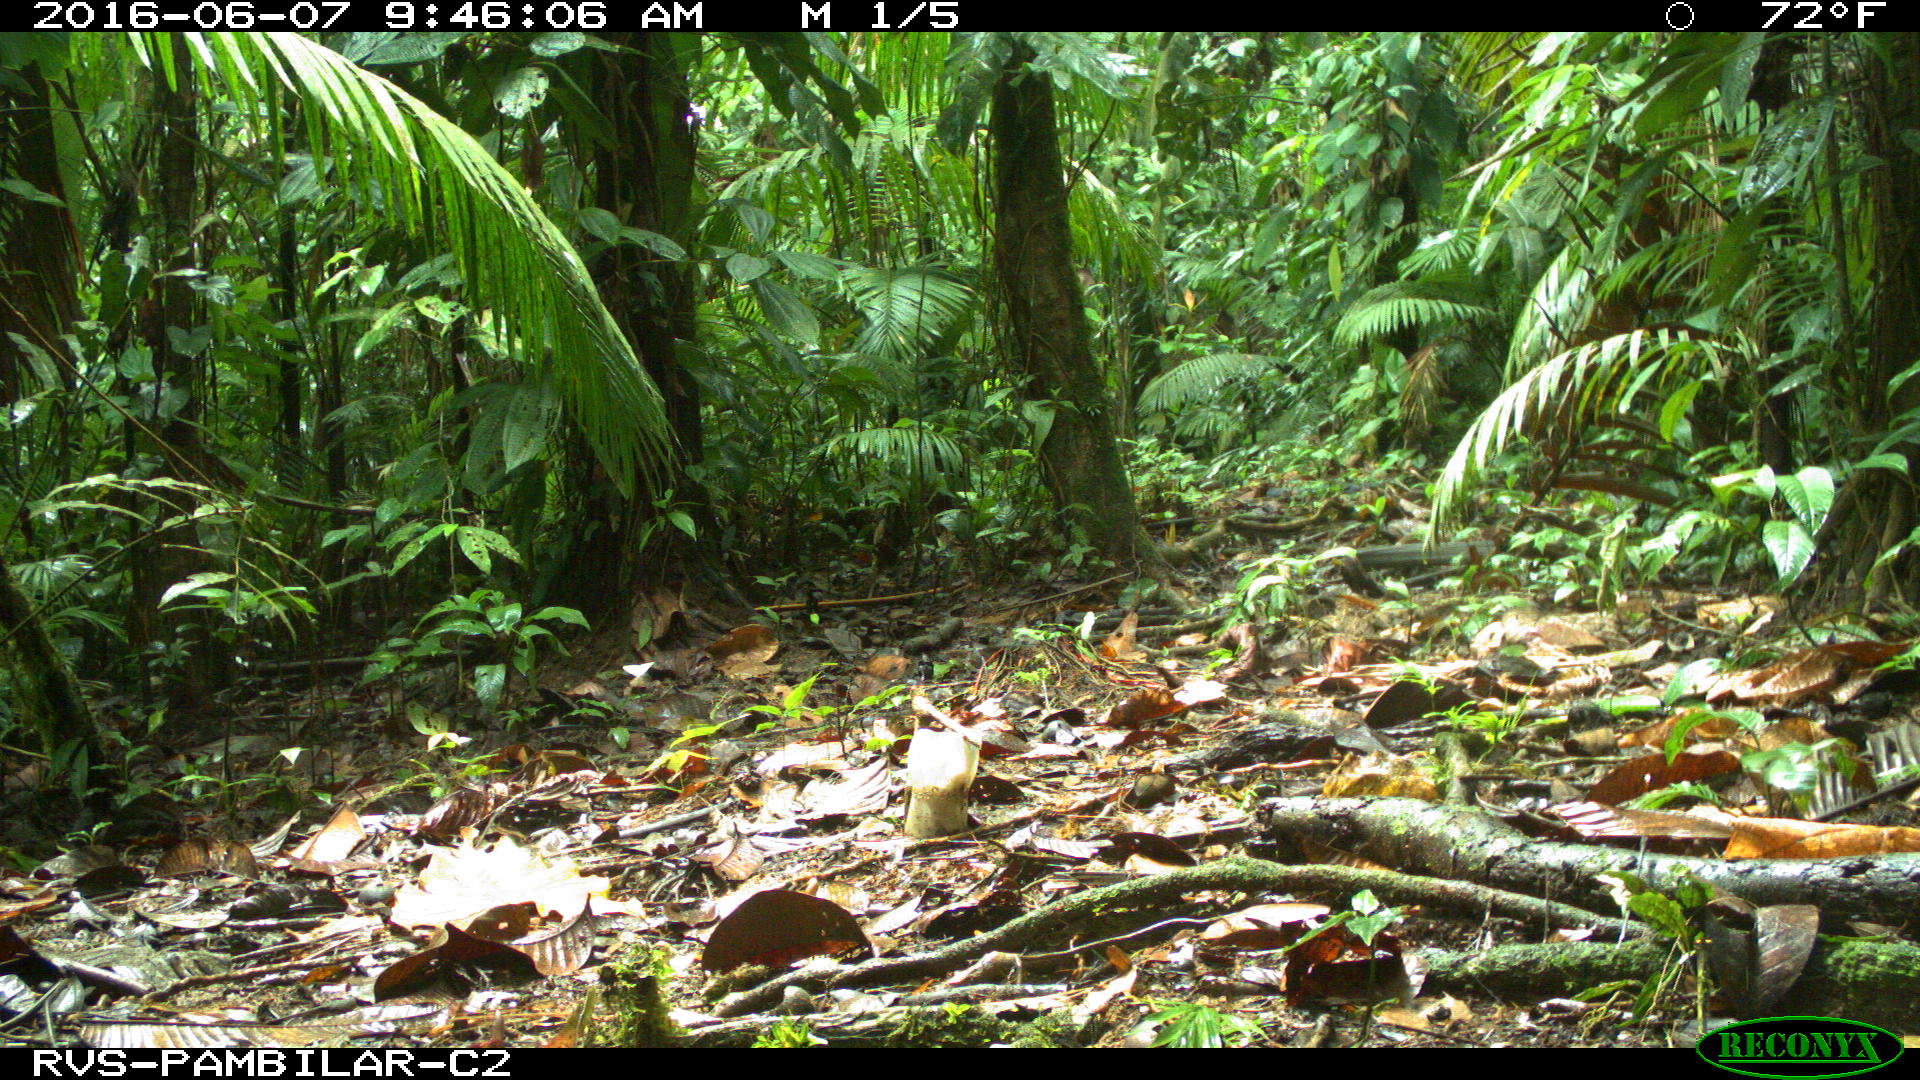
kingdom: Animalia
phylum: Chordata
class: Mammalia
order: Artiodactyla
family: Tayassuidae
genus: Tayassu
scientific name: Tayassu pecari
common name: White-lipped peccary
